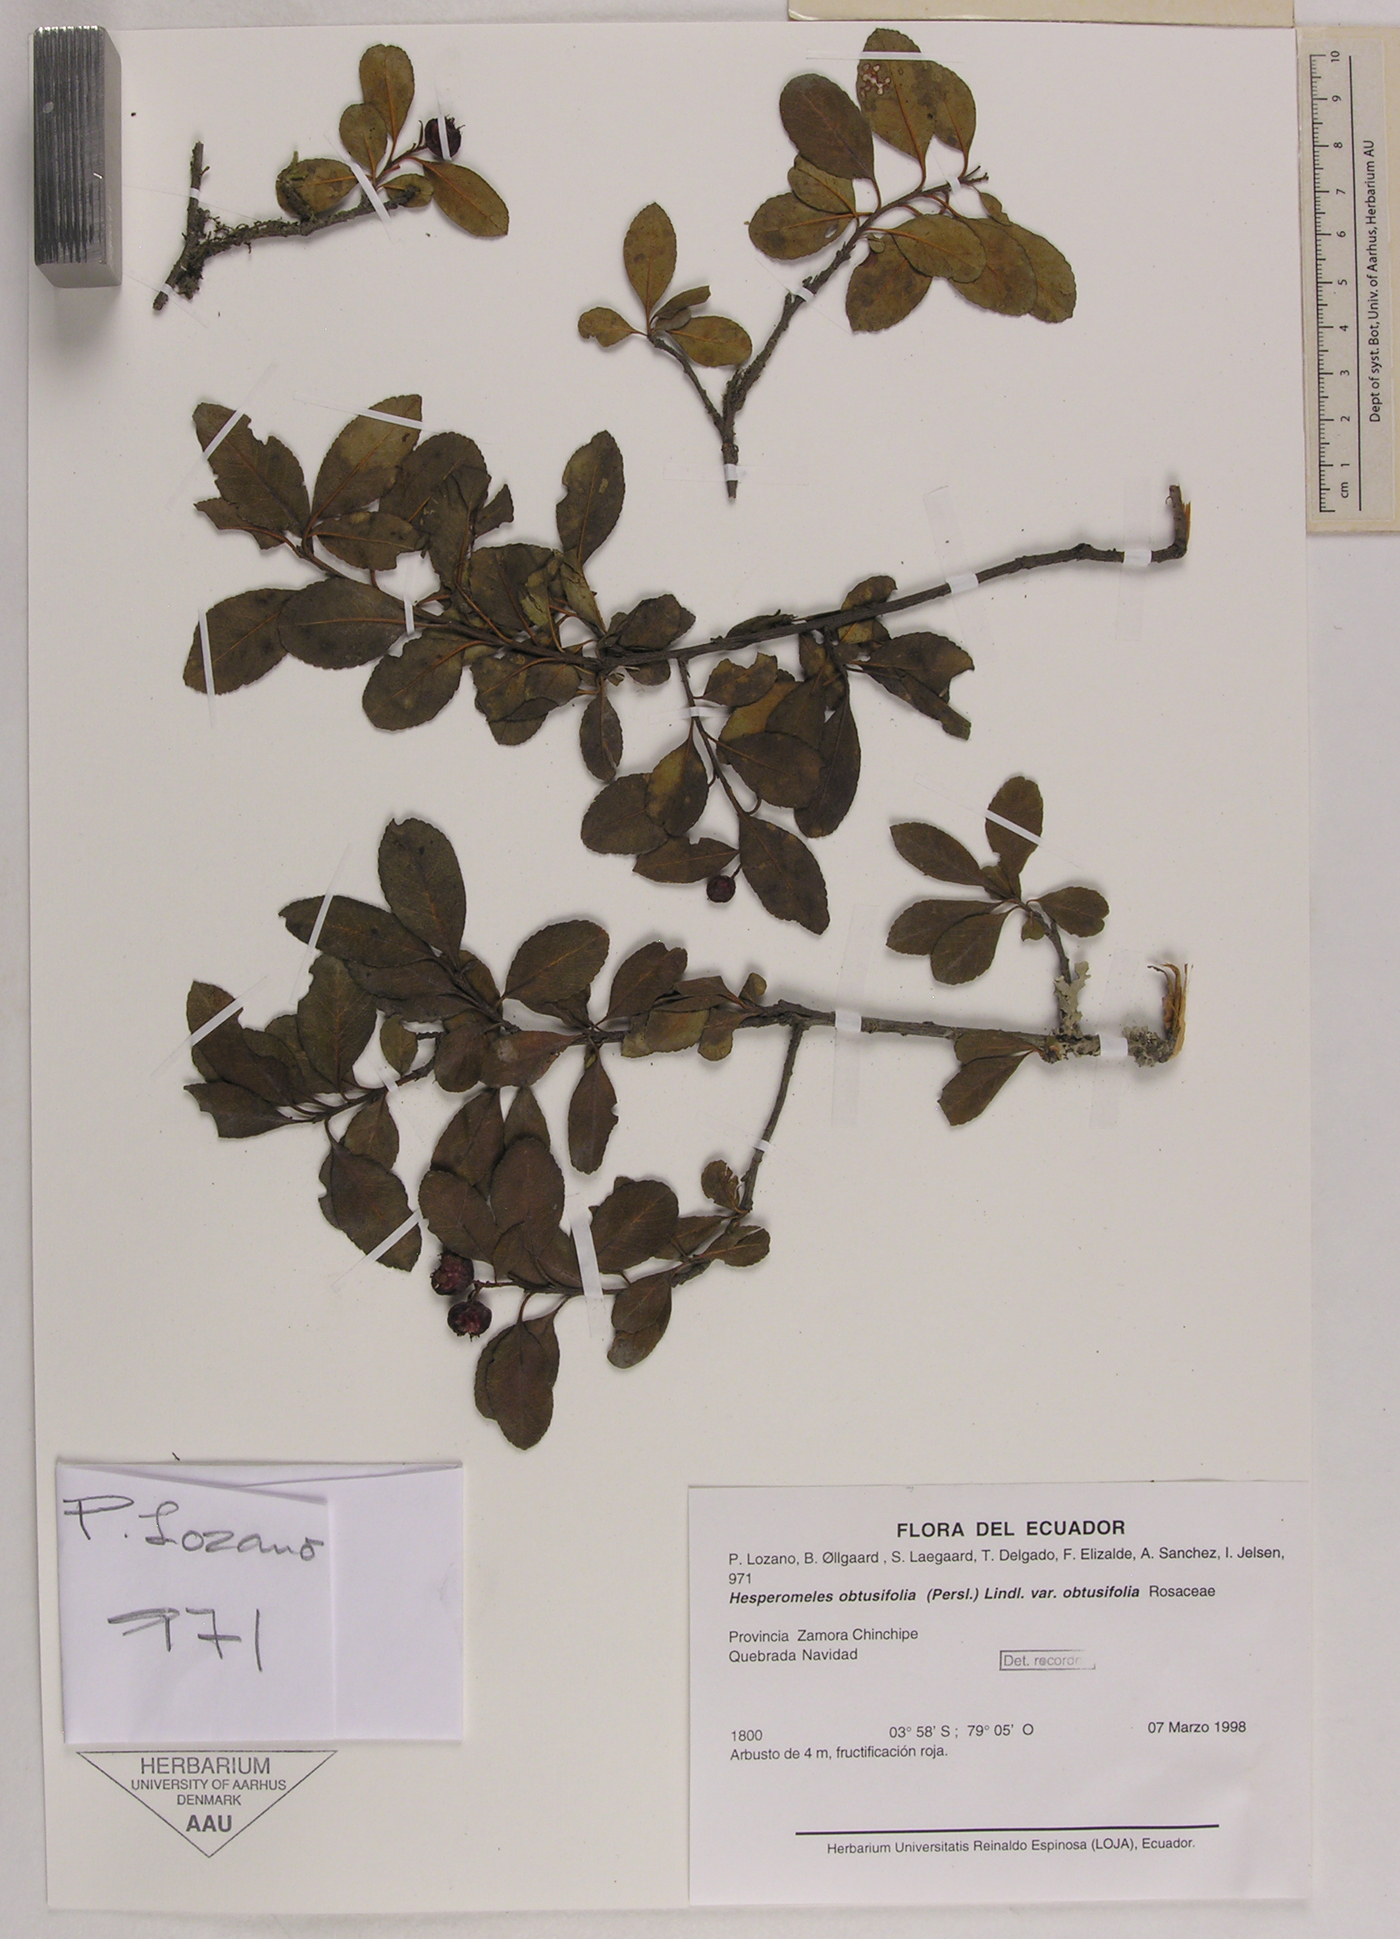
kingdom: Plantae
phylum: Tracheophyta
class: Magnoliopsida
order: Rosales
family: Rosaceae
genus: Hesperomeles
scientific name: Hesperomeles obtusifolia
